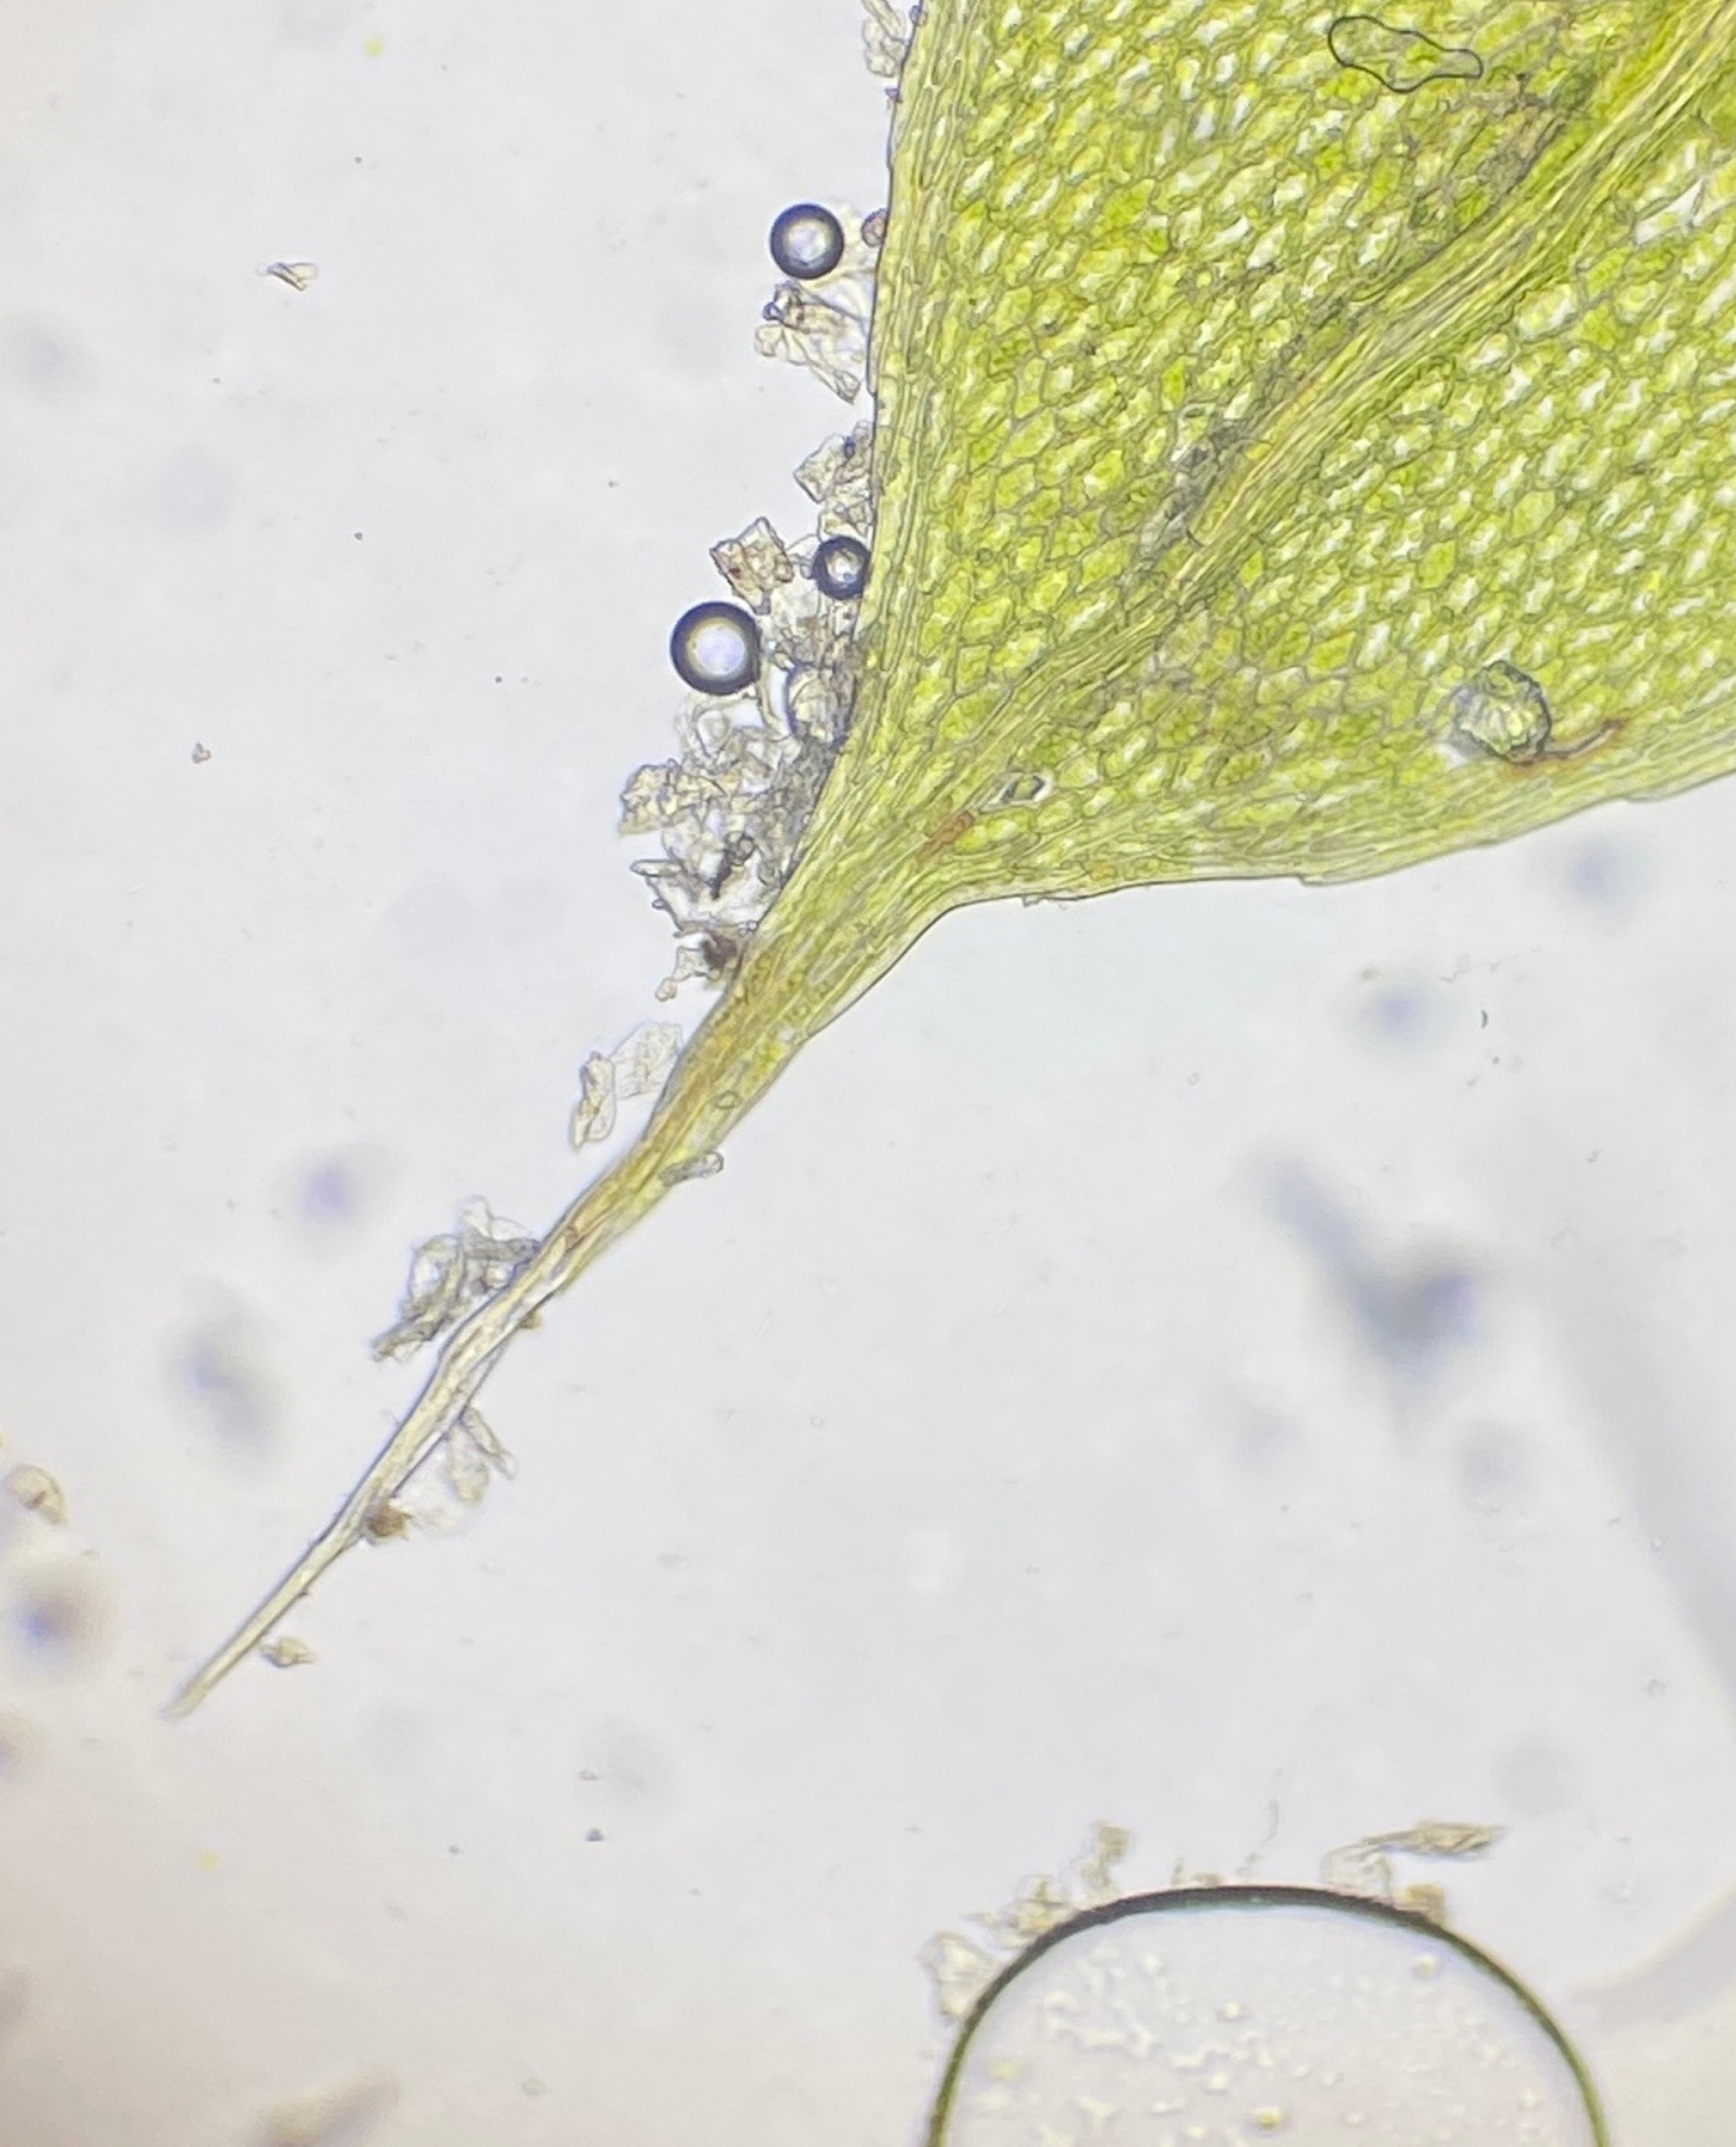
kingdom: Plantae
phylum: Bryophyta
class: Bryopsida
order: Bryales
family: Bryaceae
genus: Rosulabryum
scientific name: Rosulabryum moravicum
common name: Bark-bryum
